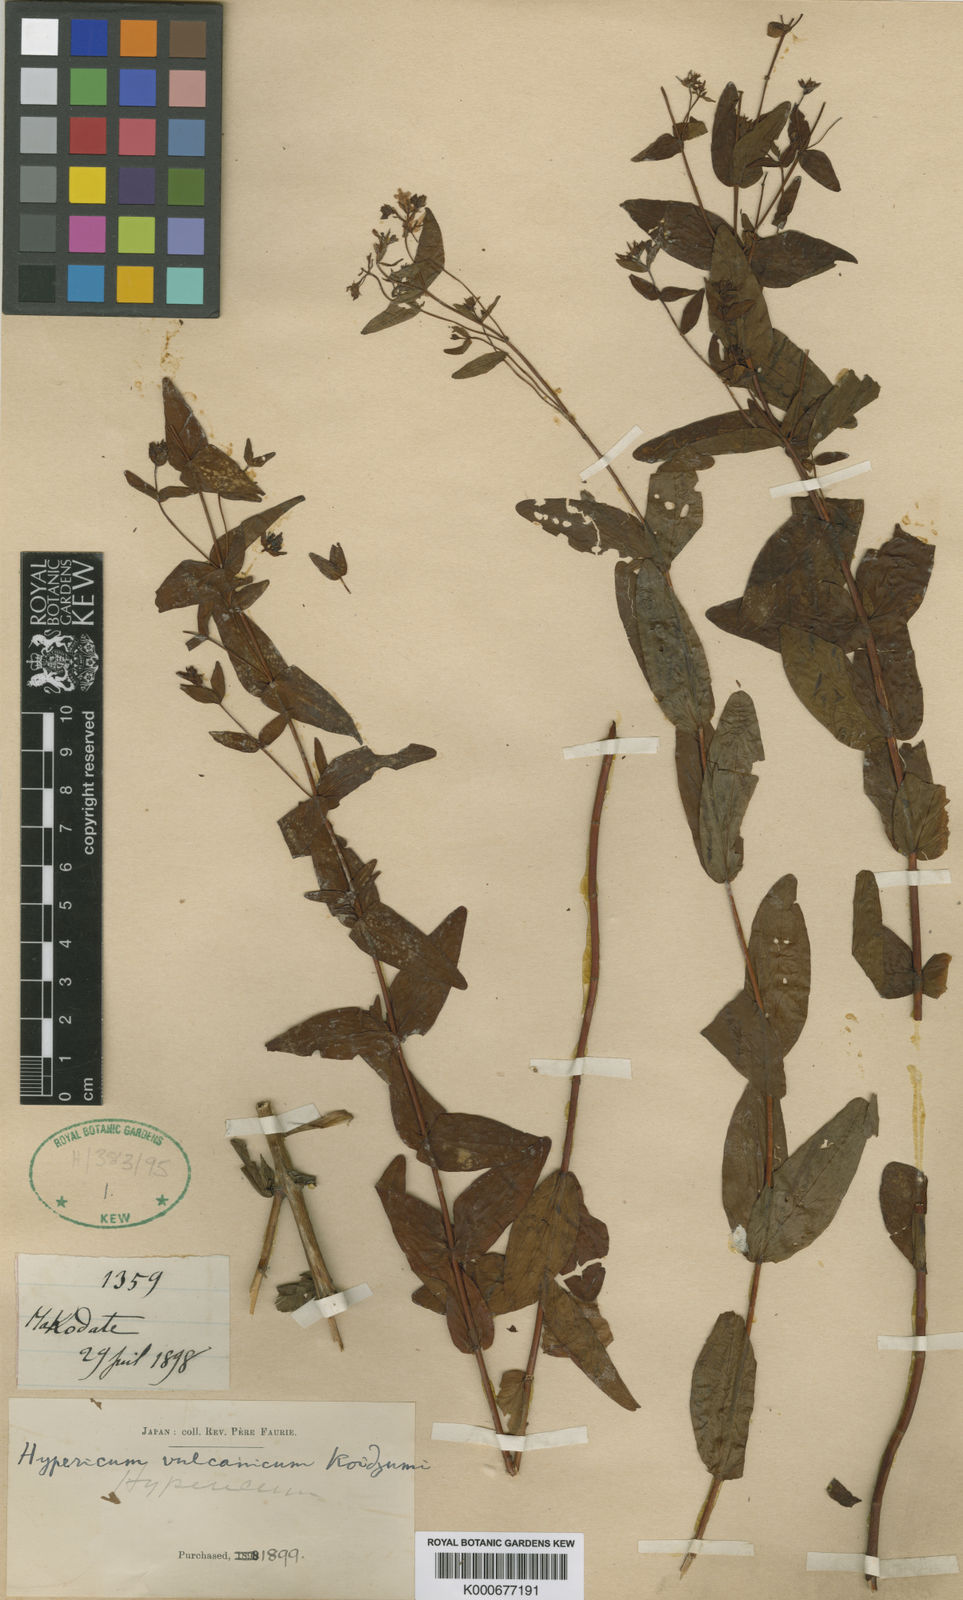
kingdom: Plantae
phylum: Tracheophyta
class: Magnoliopsida
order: Malpighiales
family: Hypericaceae
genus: Hypericum
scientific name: Hypericum vulcanicum
